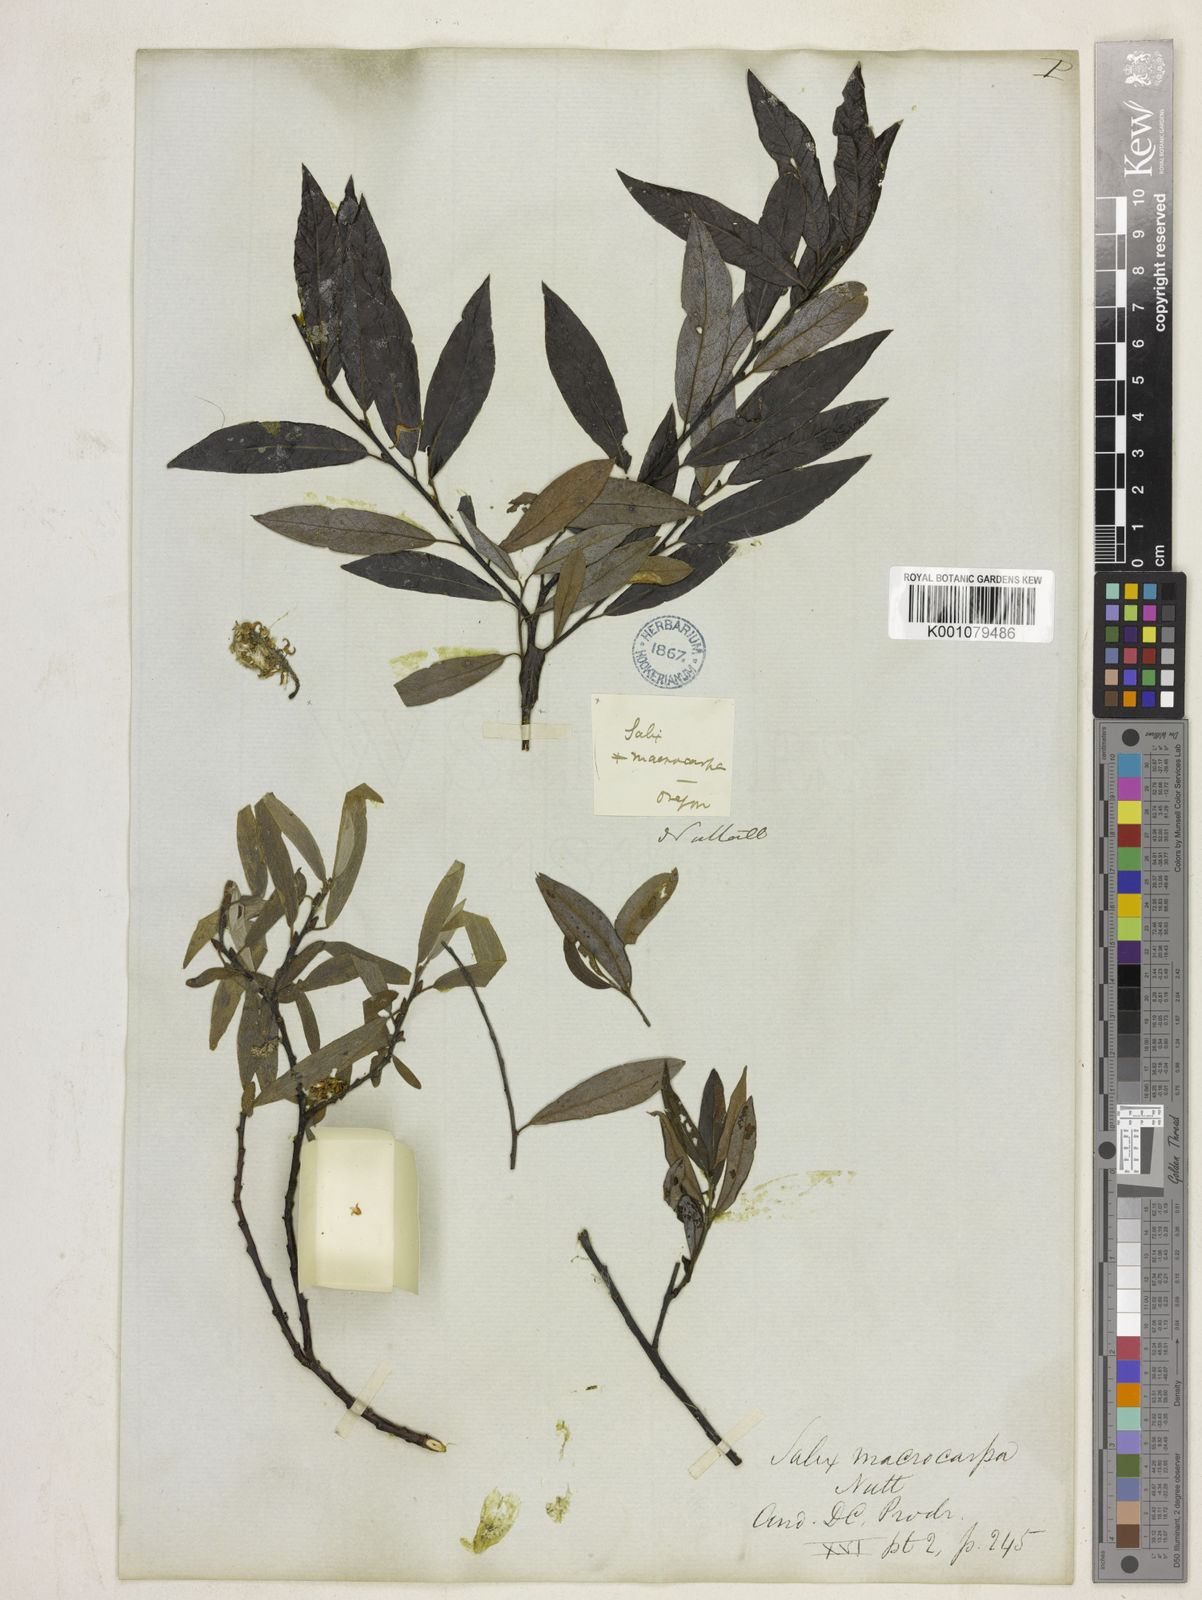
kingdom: Plantae
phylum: Tracheophyta
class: Magnoliopsida
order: Malpighiales
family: Salicaceae
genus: Salix
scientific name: Salix geyeriana
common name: Geyer's willow
